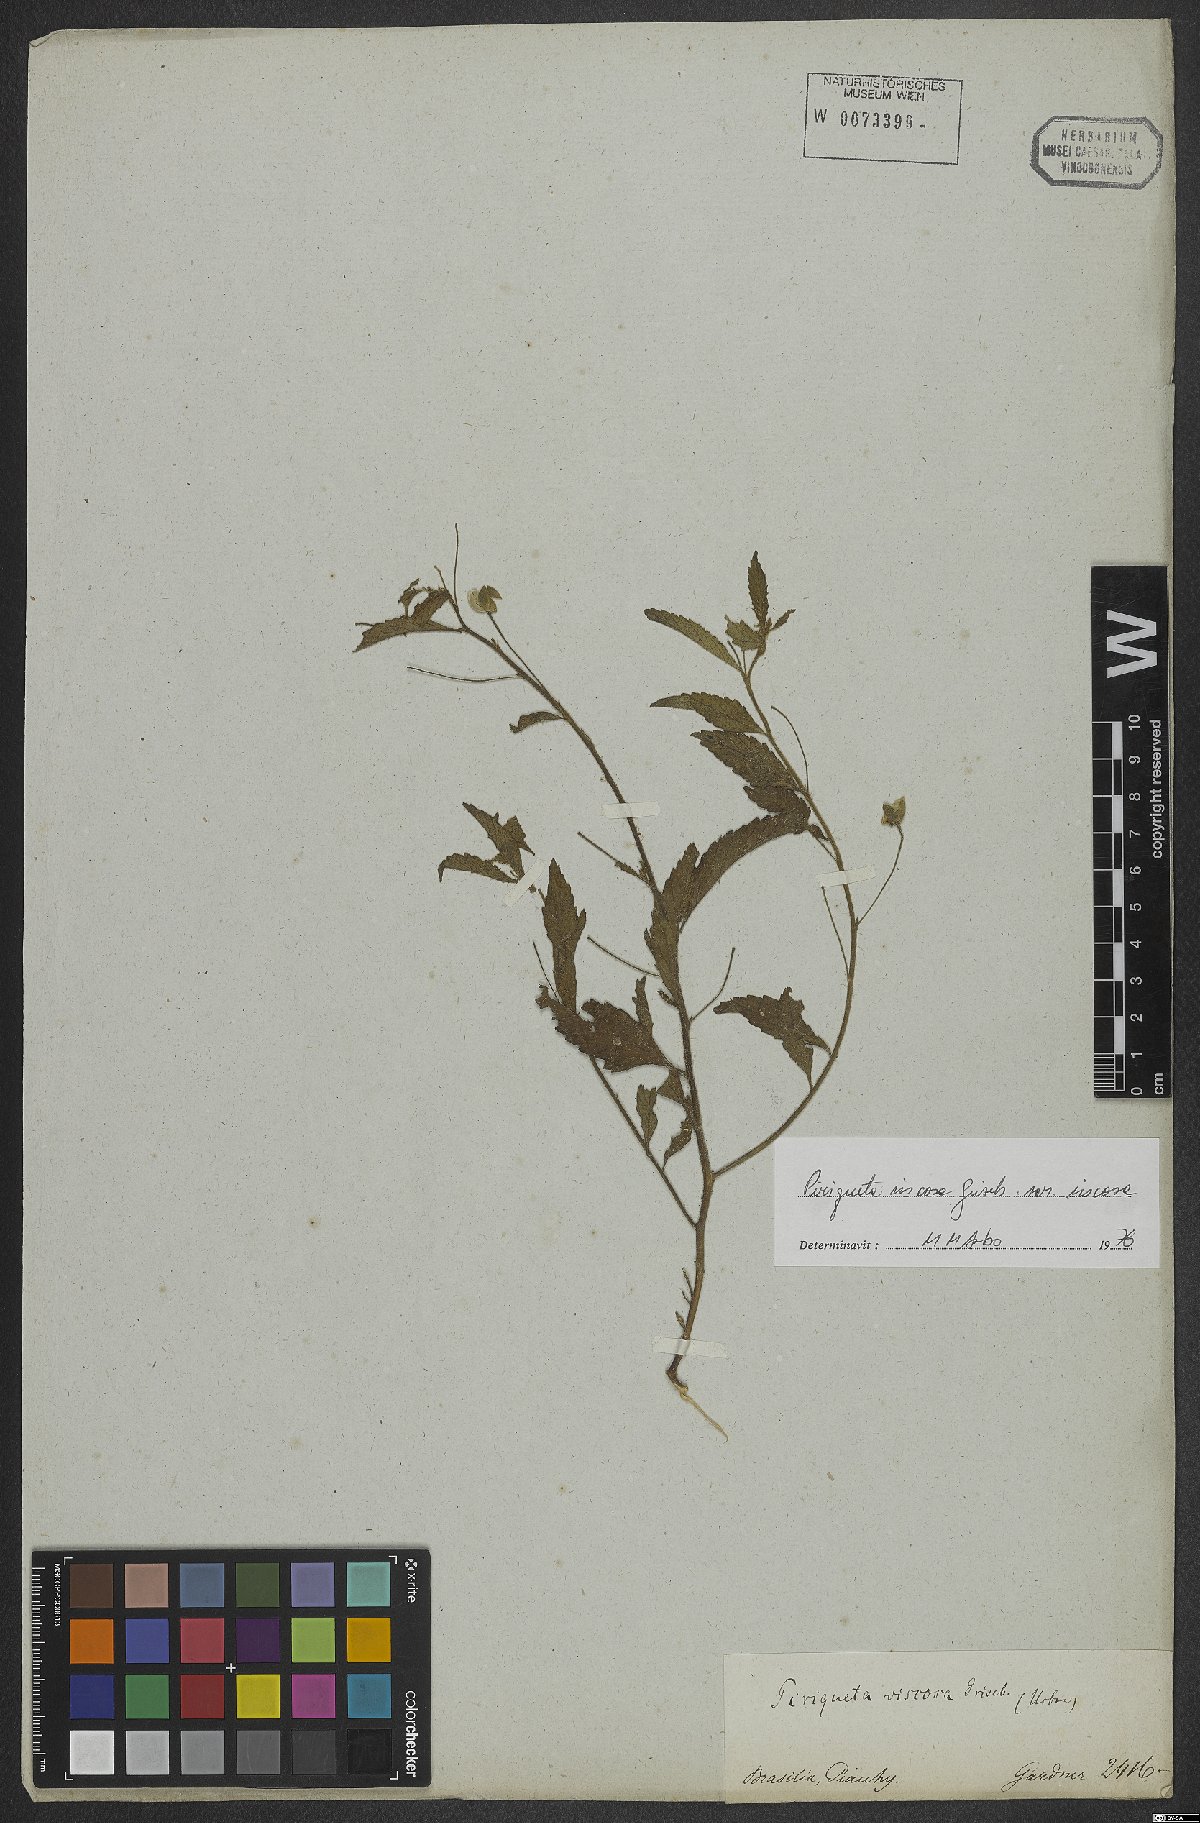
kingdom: Plantae
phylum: Tracheophyta
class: Magnoliopsida
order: Malpighiales
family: Turneraceae
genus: Piriqueta
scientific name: Piriqueta viscosa
